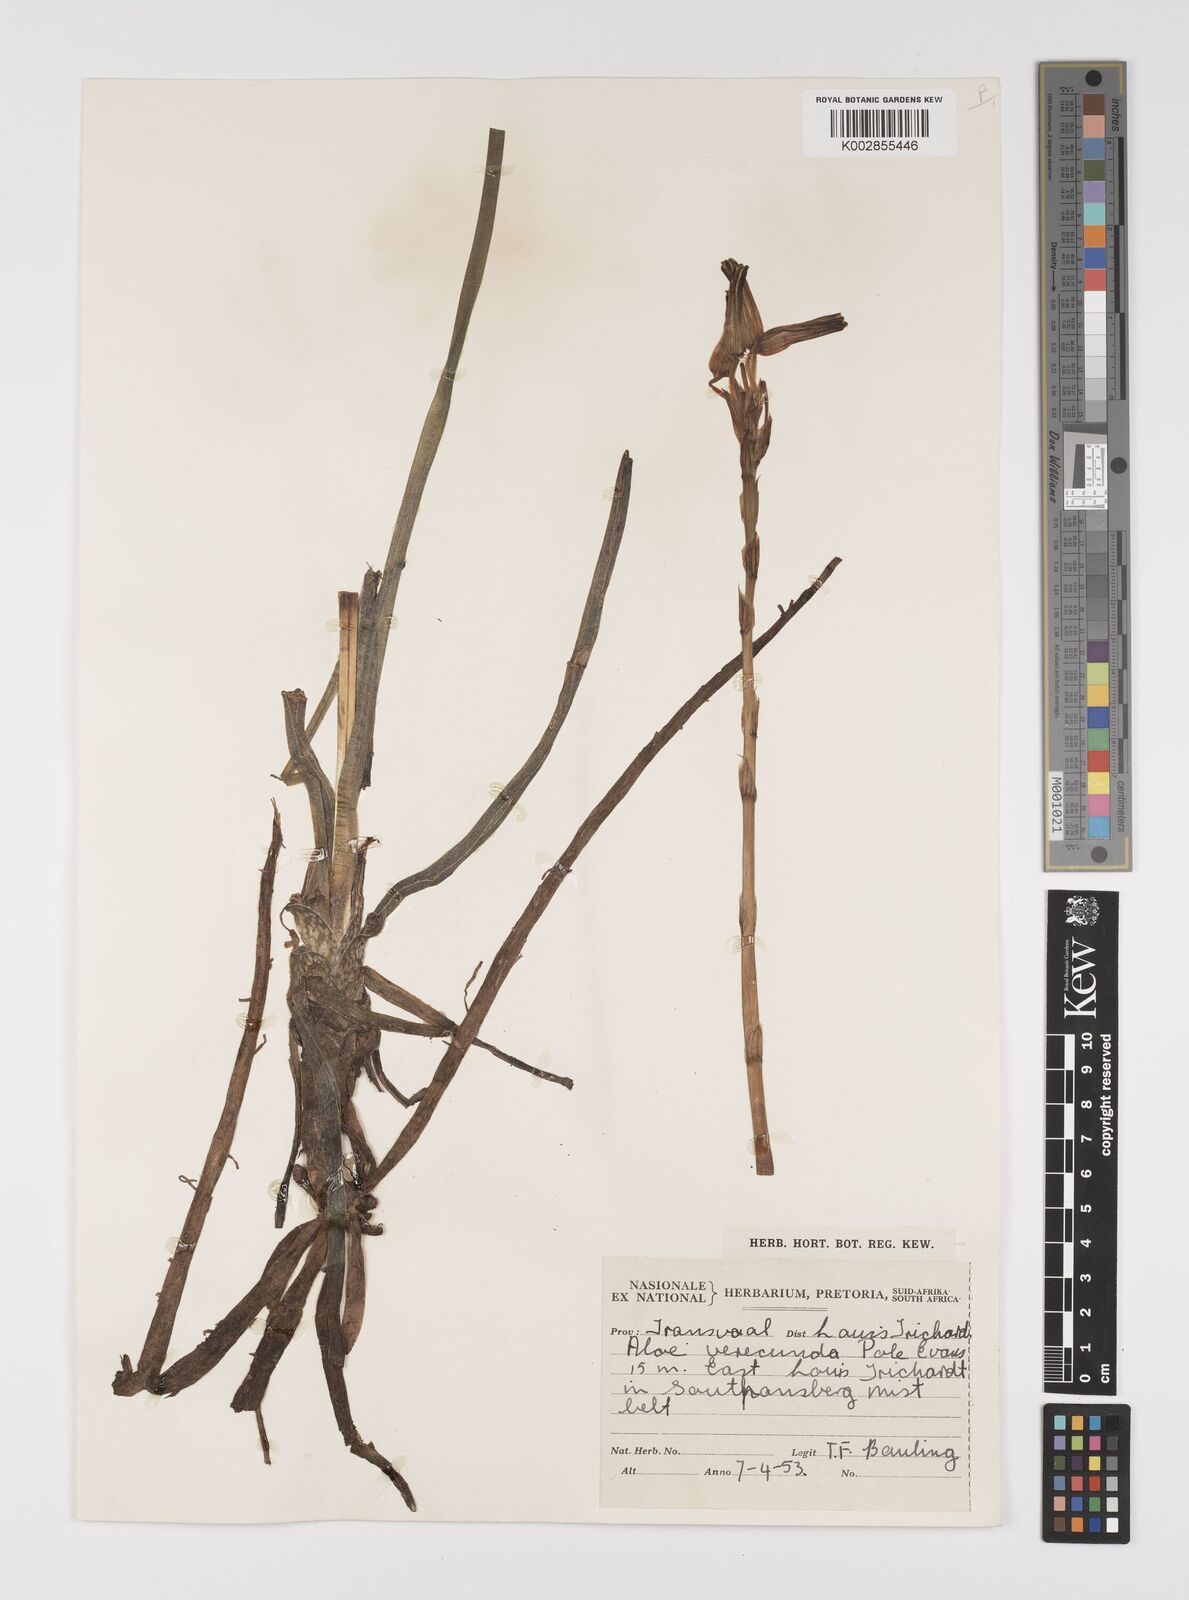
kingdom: Plantae
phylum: Tracheophyta
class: Liliopsida
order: Asparagales
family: Asphodelaceae
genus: Aloe
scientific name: Aloe verecunda
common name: Grass aloe
